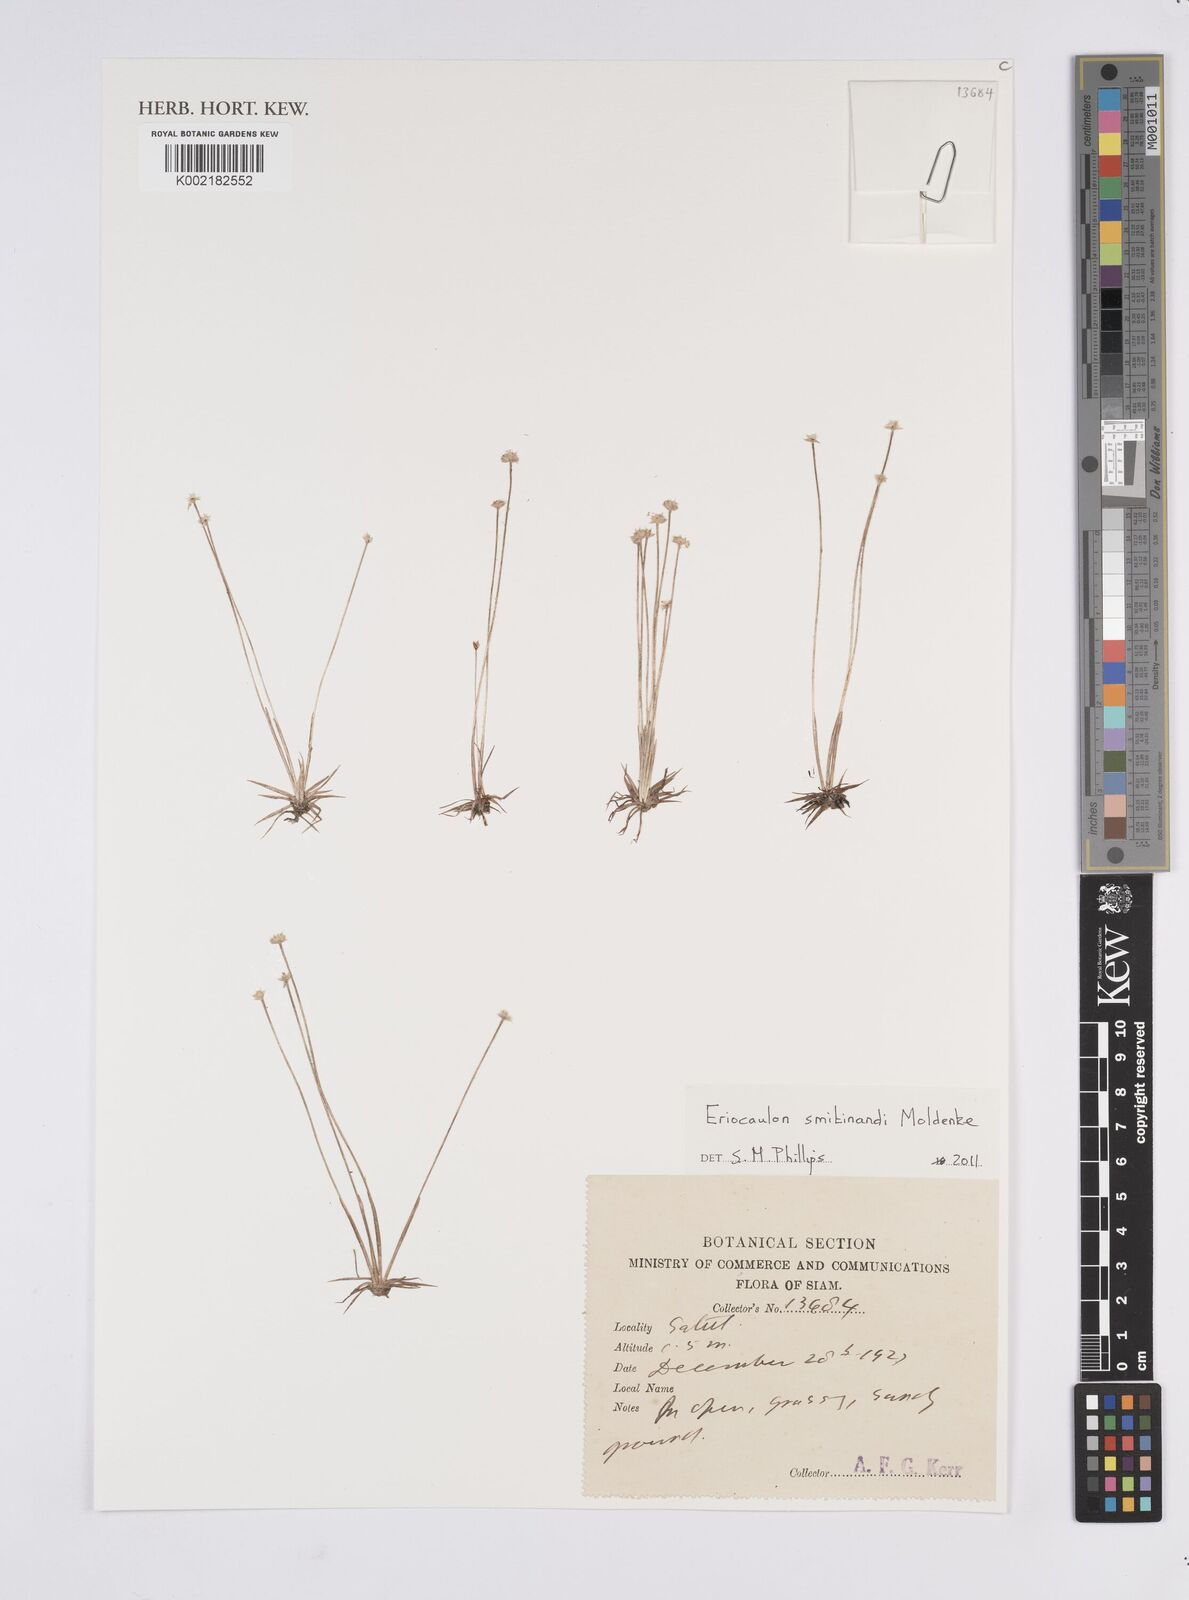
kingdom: Plantae
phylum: Tracheophyta
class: Liliopsida
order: Poales
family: Eriocaulaceae
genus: Eriocaulon
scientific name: Eriocaulon smitinandii
